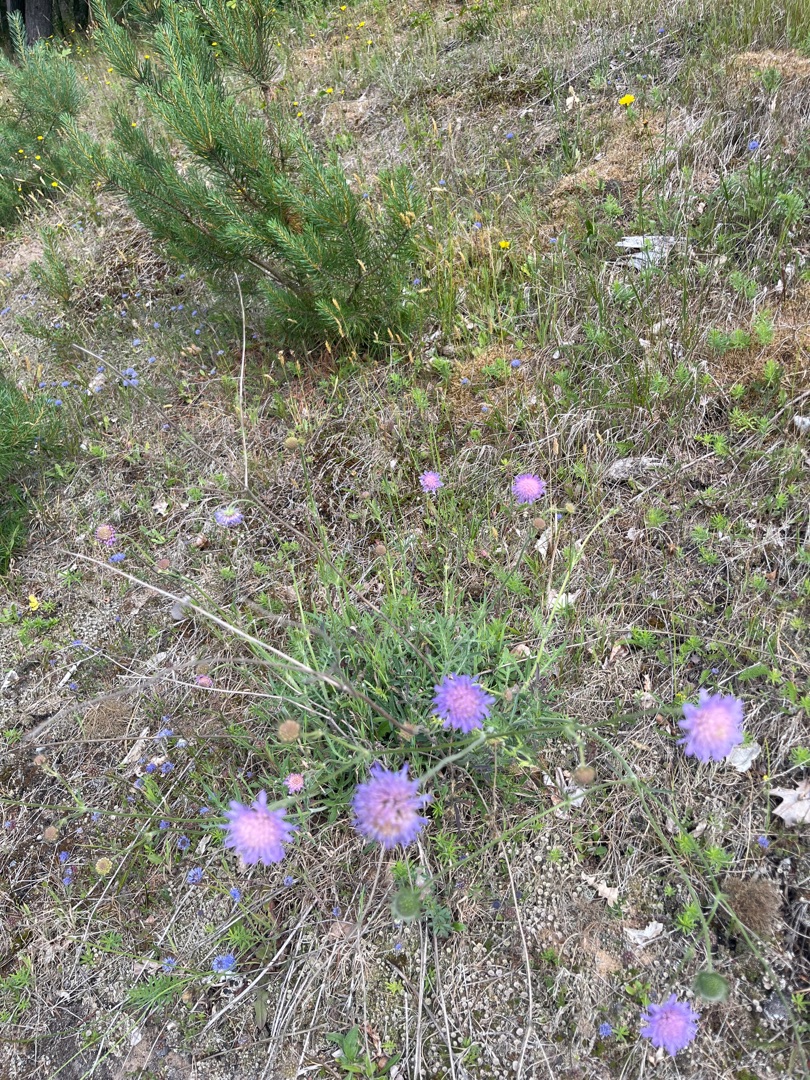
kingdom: Plantae
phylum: Tracheophyta
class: Magnoliopsida
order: Dipsacales
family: Caprifoliaceae
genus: Knautia
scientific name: Knautia arvensis
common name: Blåhat
